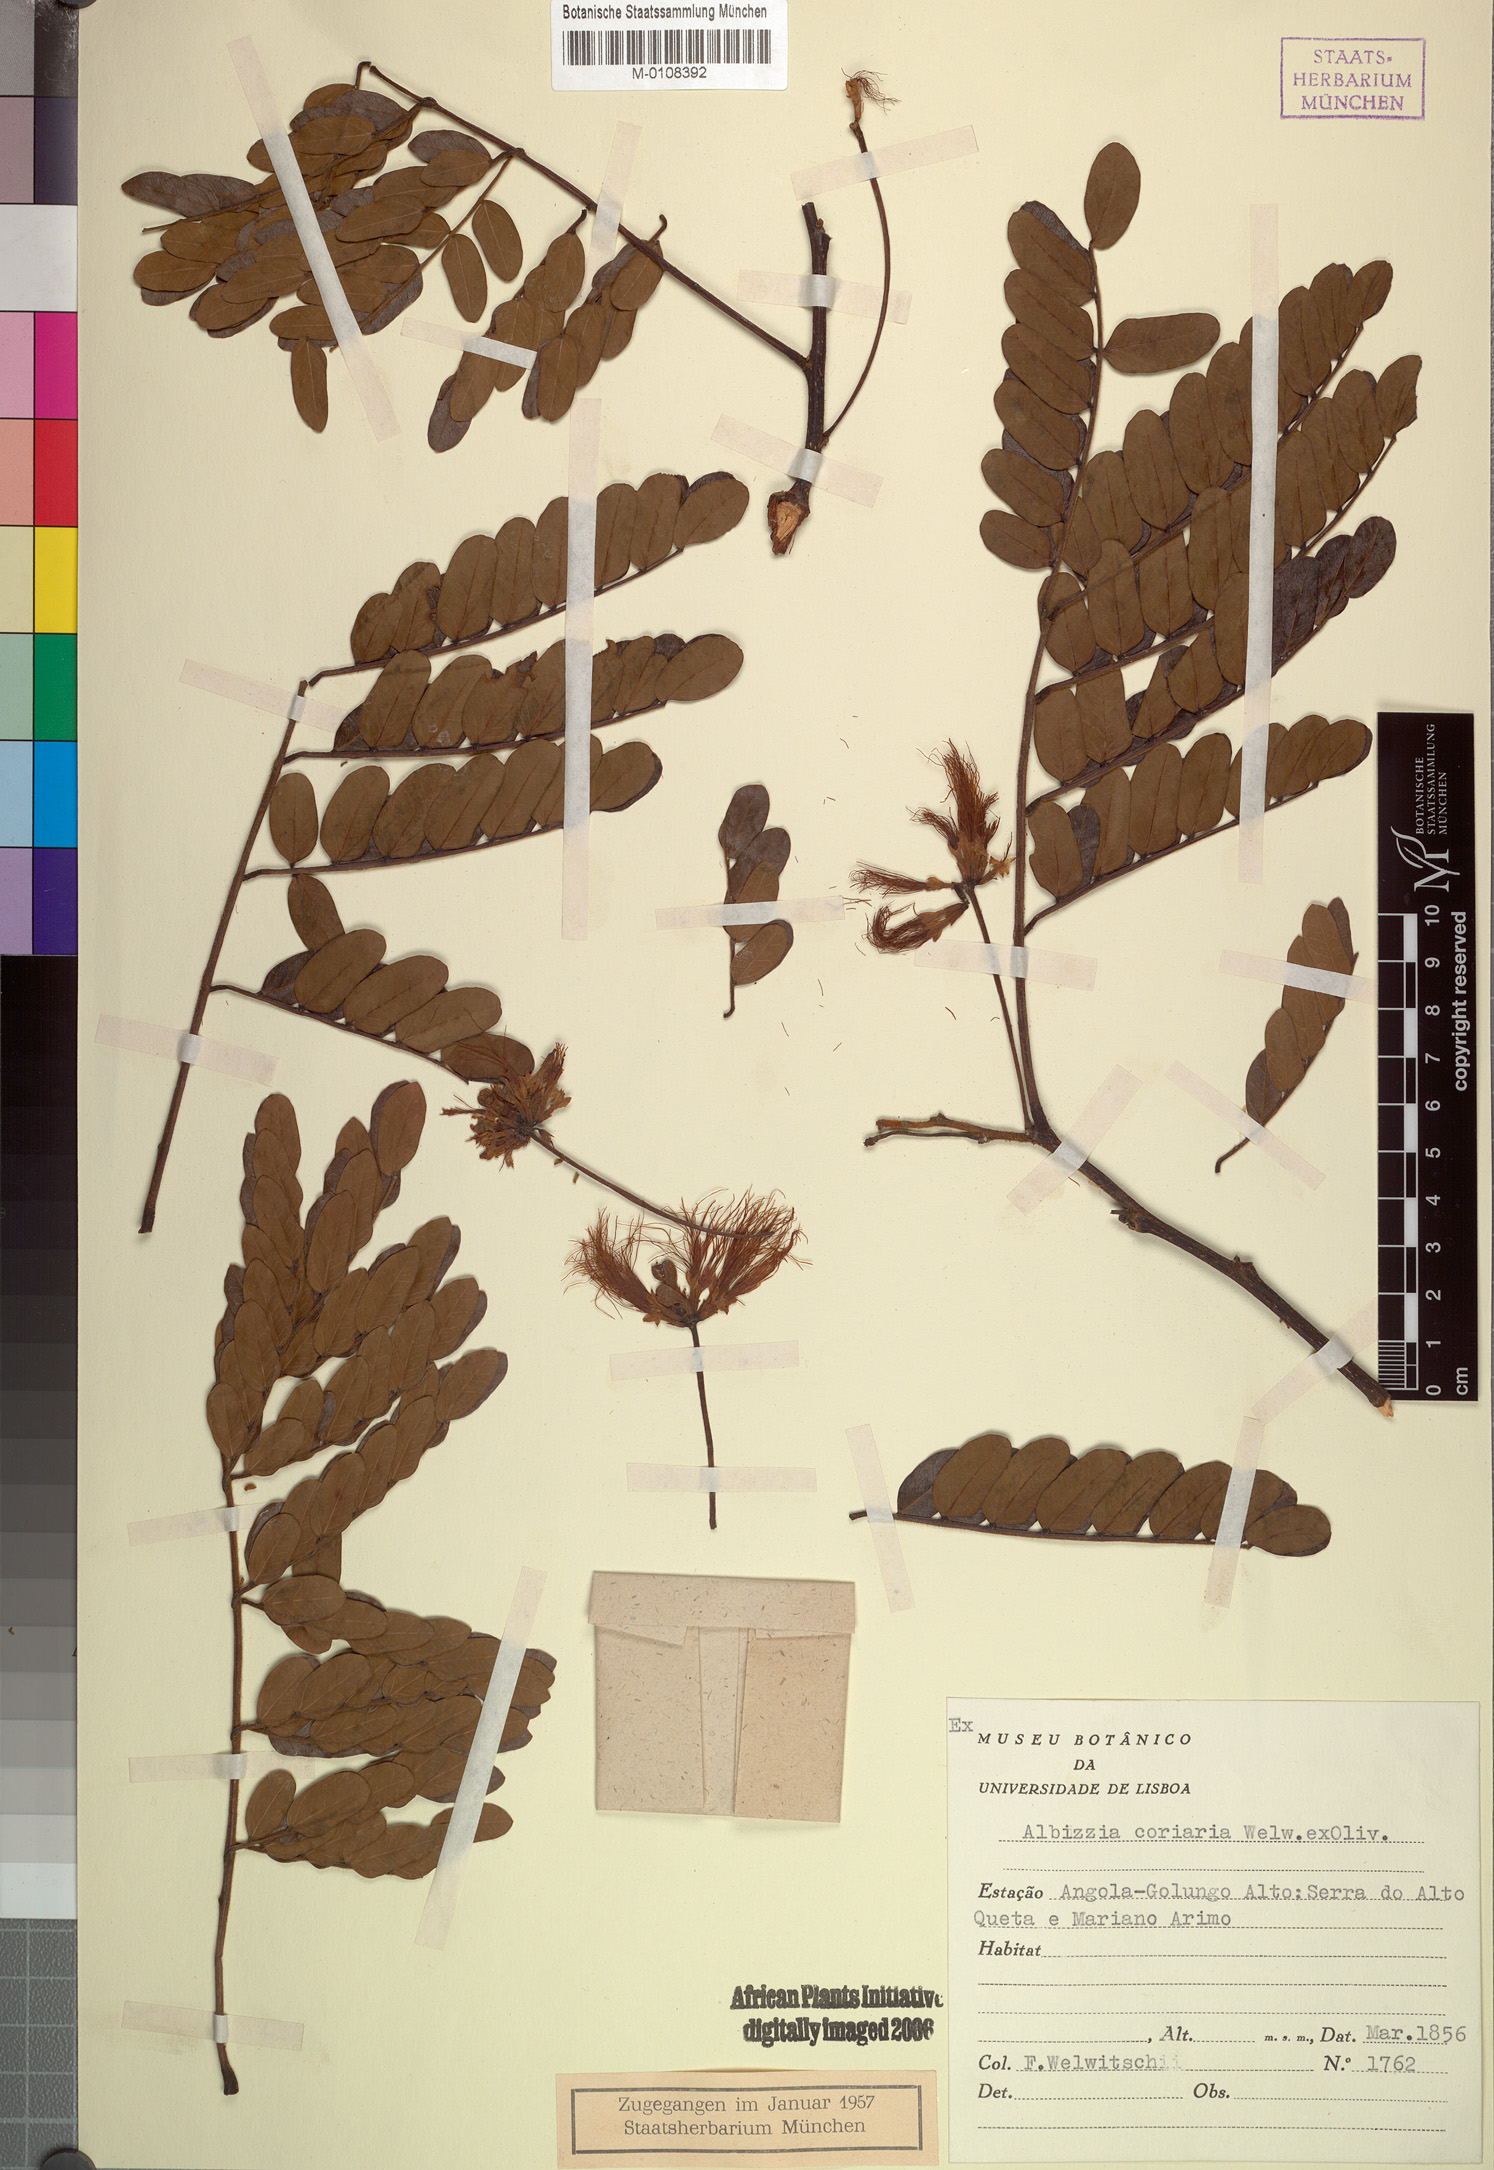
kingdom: Plantae
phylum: Tracheophyta
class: Magnoliopsida
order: Fabales
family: Fabaceae
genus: Albizia
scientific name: Albizia coriaria
